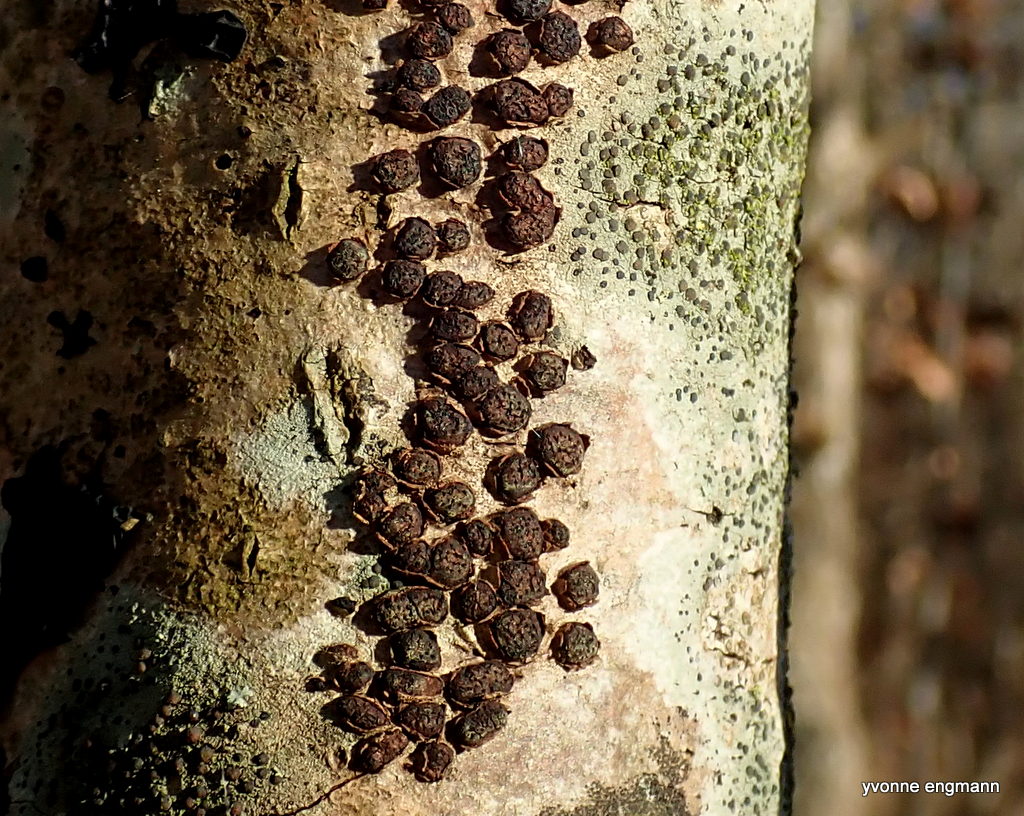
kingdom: Fungi
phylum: Ascomycota
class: Sordariomycetes
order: Xylariales
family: Diatrypaceae
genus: Diatrypella
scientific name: Diatrypella quercina
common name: ege-kulskorpe
